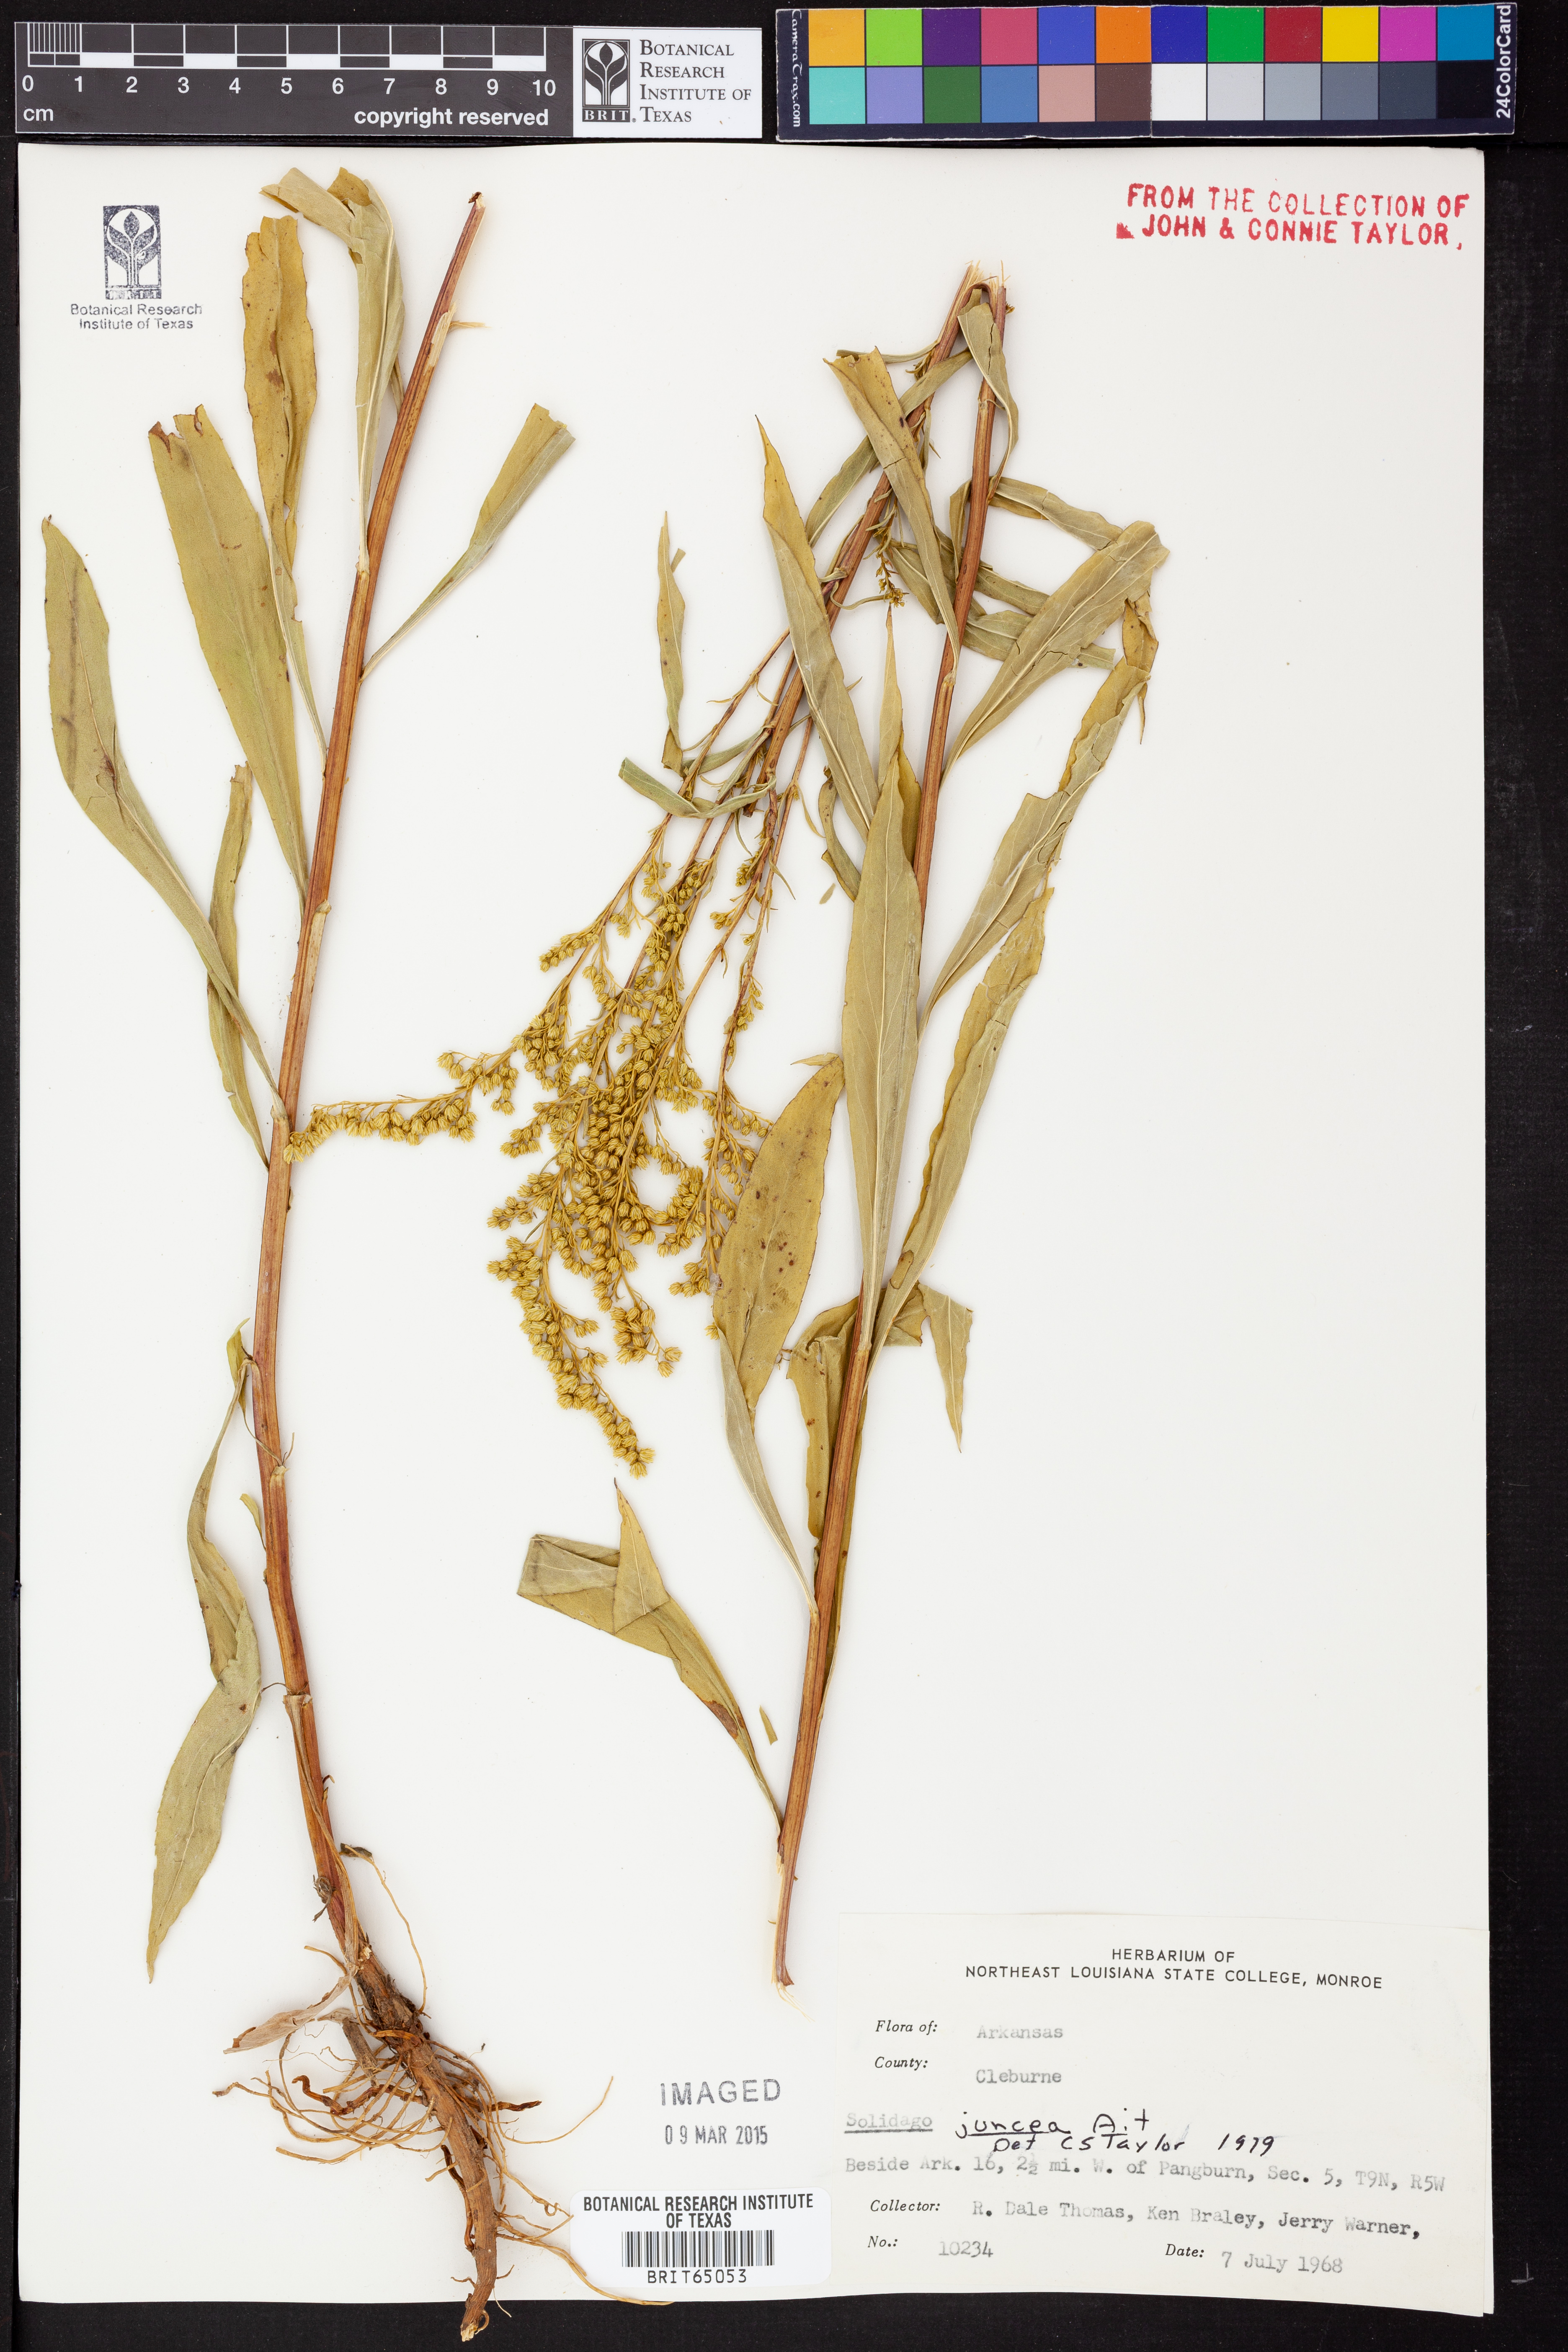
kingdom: Plantae
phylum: Tracheophyta
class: Magnoliopsida
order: Asterales
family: Asteraceae
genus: Solidago
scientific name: Solidago juncea
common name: Early goldenrod
